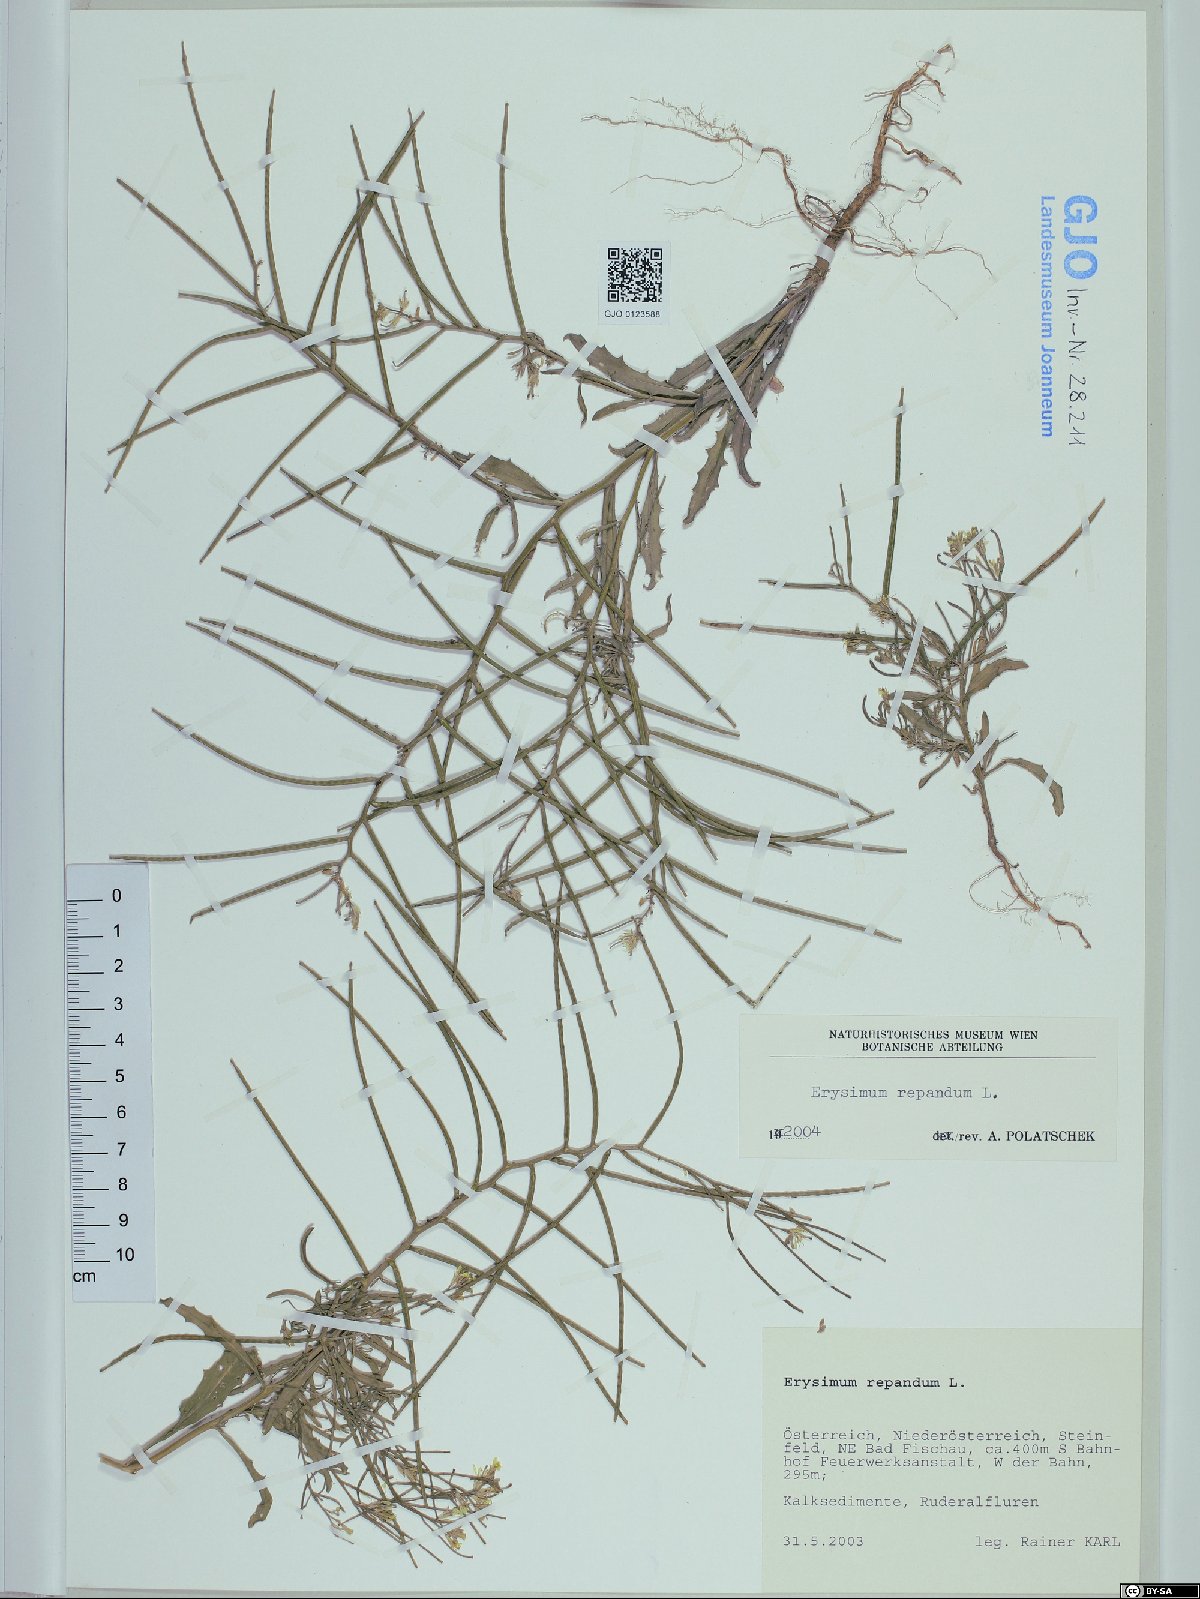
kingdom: Plantae
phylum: Tracheophyta
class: Magnoliopsida
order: Brassicales
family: Brassicaceae
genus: Erysimum
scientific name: Erysimum repandum
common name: Spreading wallflower
